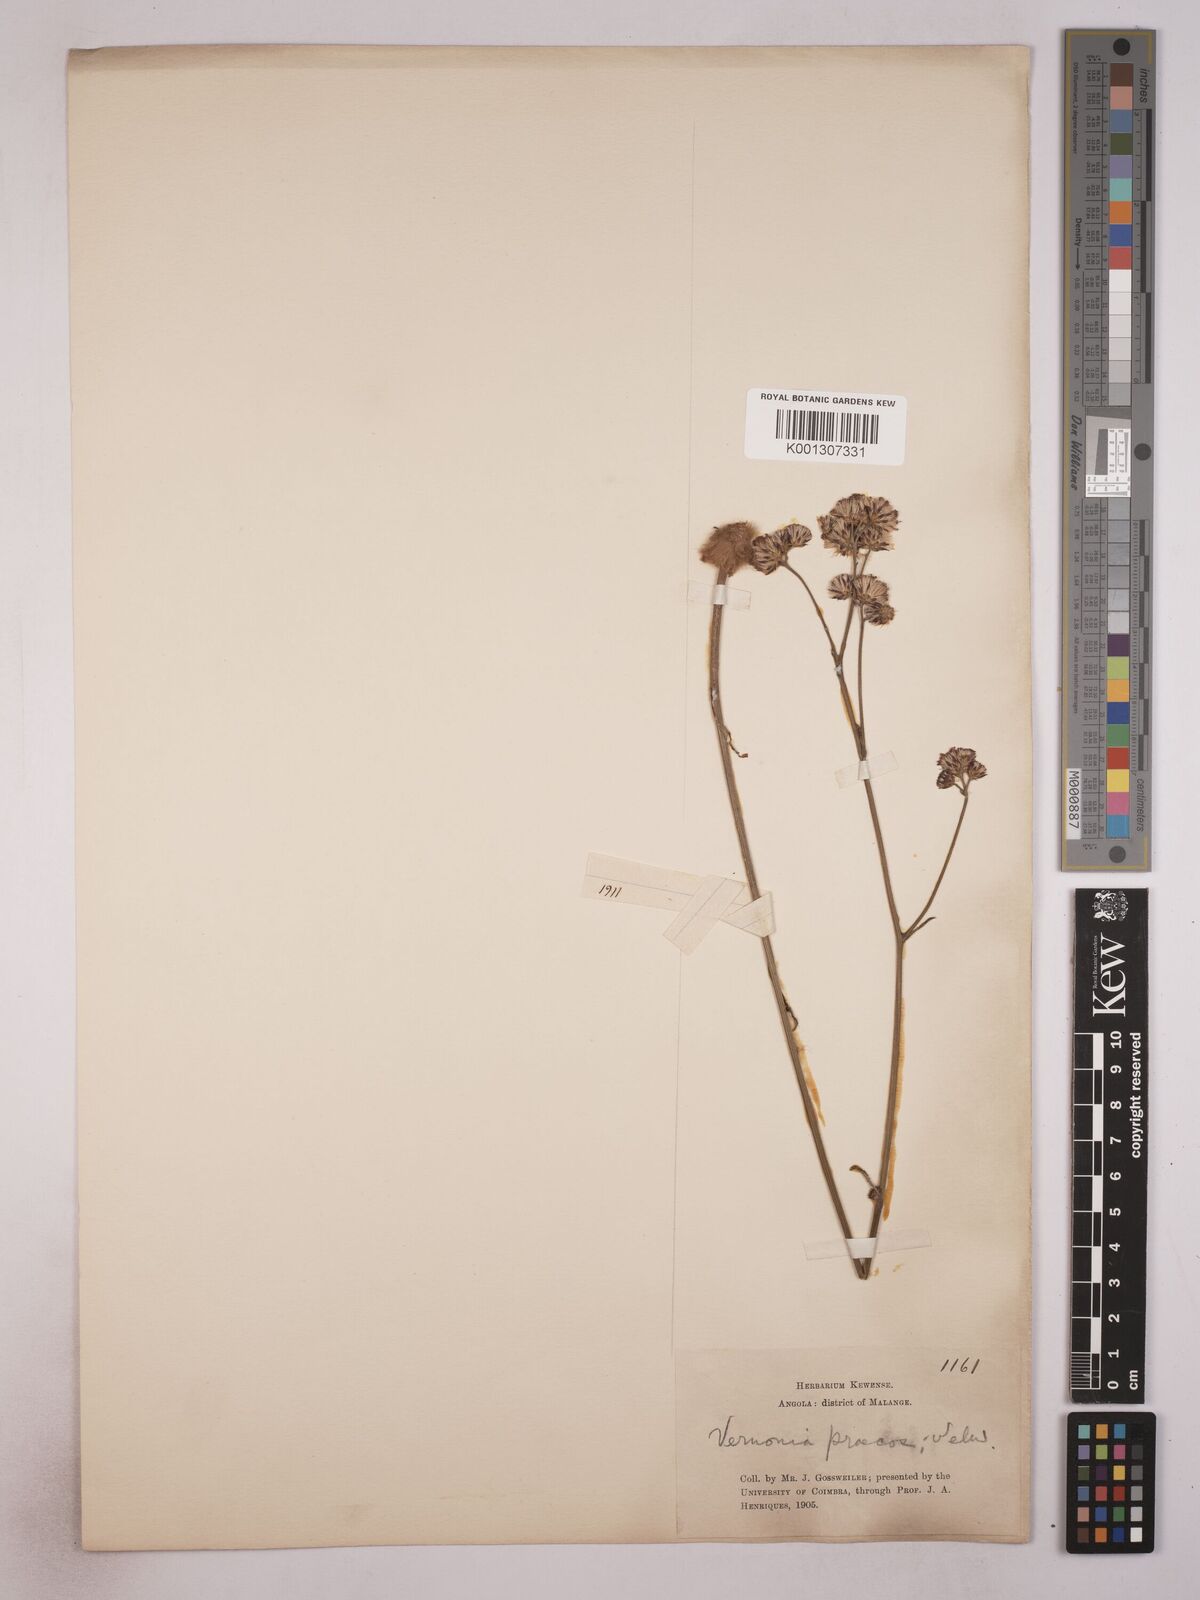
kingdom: Plantae
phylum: Tracheophyta
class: Magnoliopsida
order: Asterales
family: Asteraceae
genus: Vernonella
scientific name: Vernonella praecox
